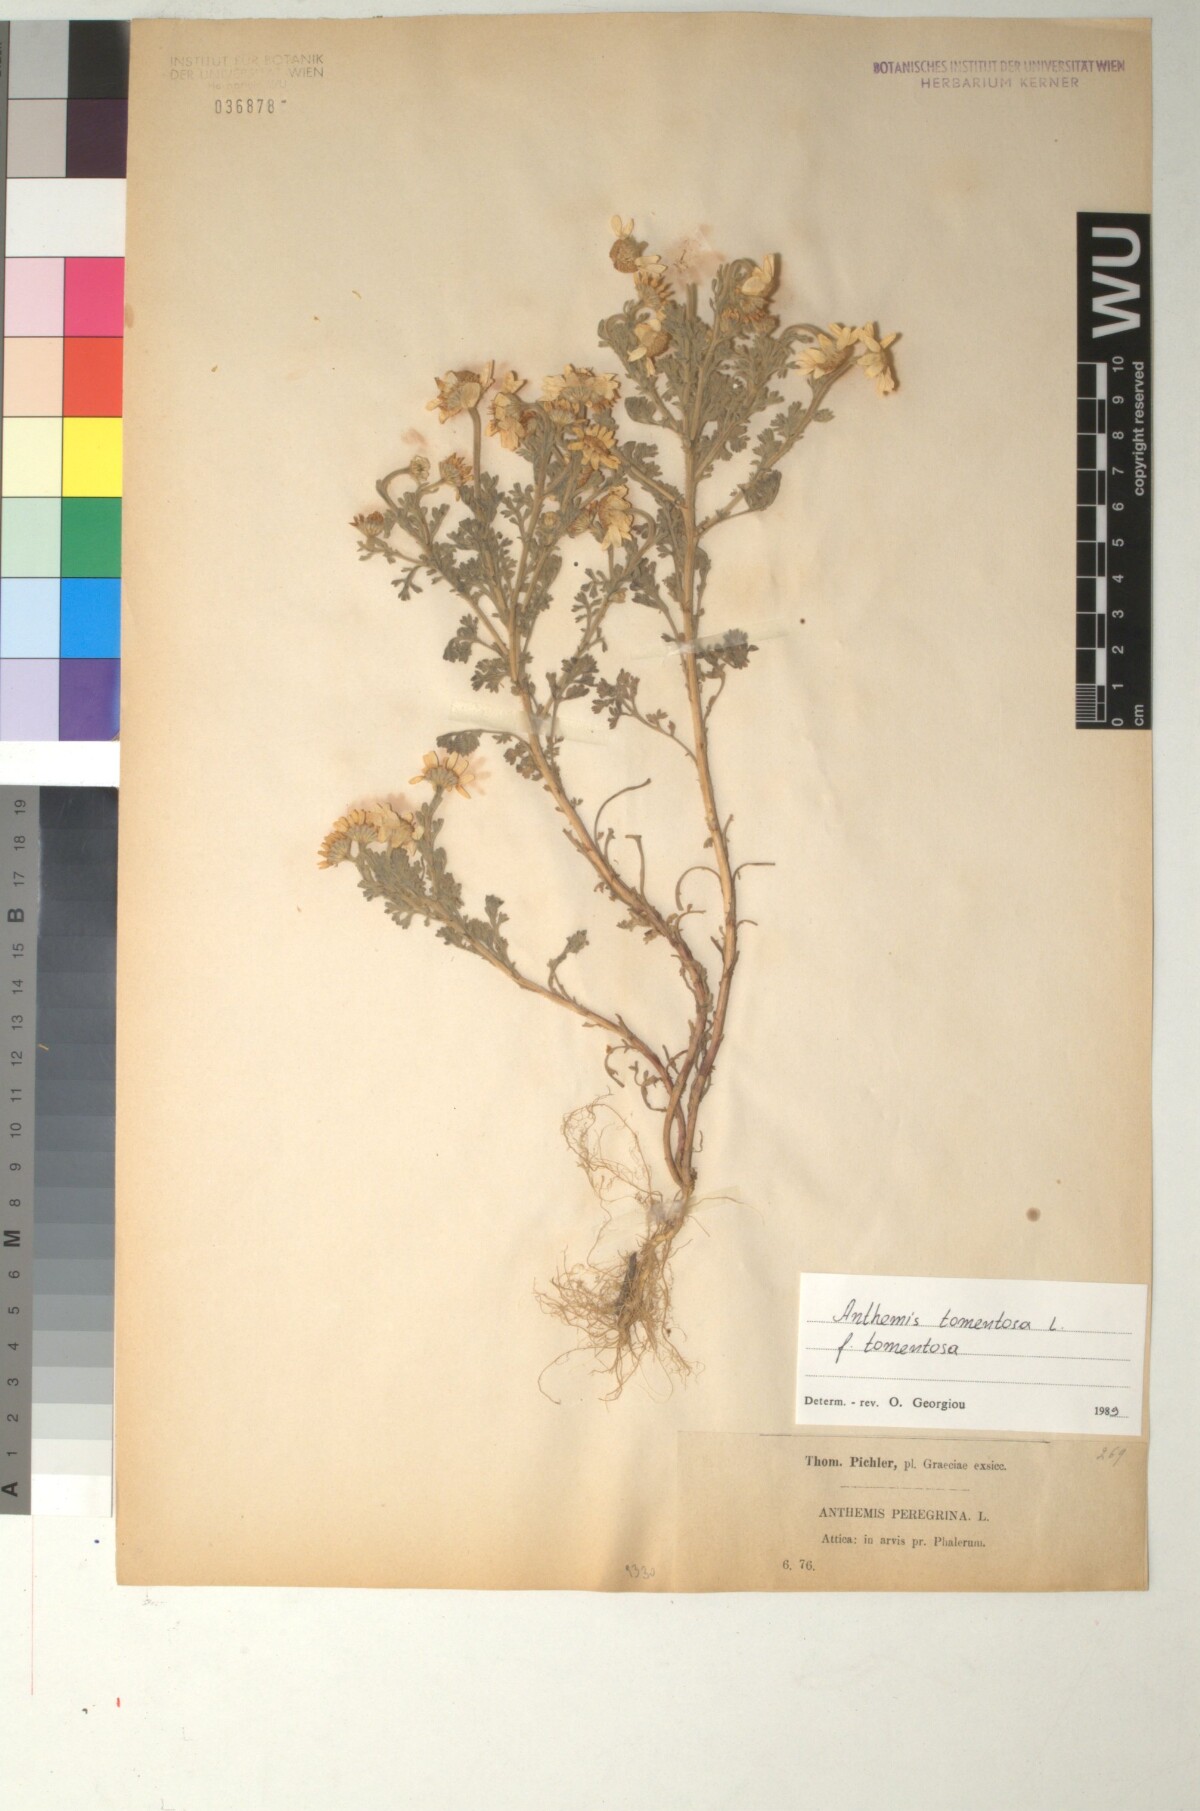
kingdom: Plantae
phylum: Tracheophyta
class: Magnoliopsida
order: Asterales
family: Asteraceae
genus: Anthemis
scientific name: Anthemis tomentosa
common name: Woolly chamomile
